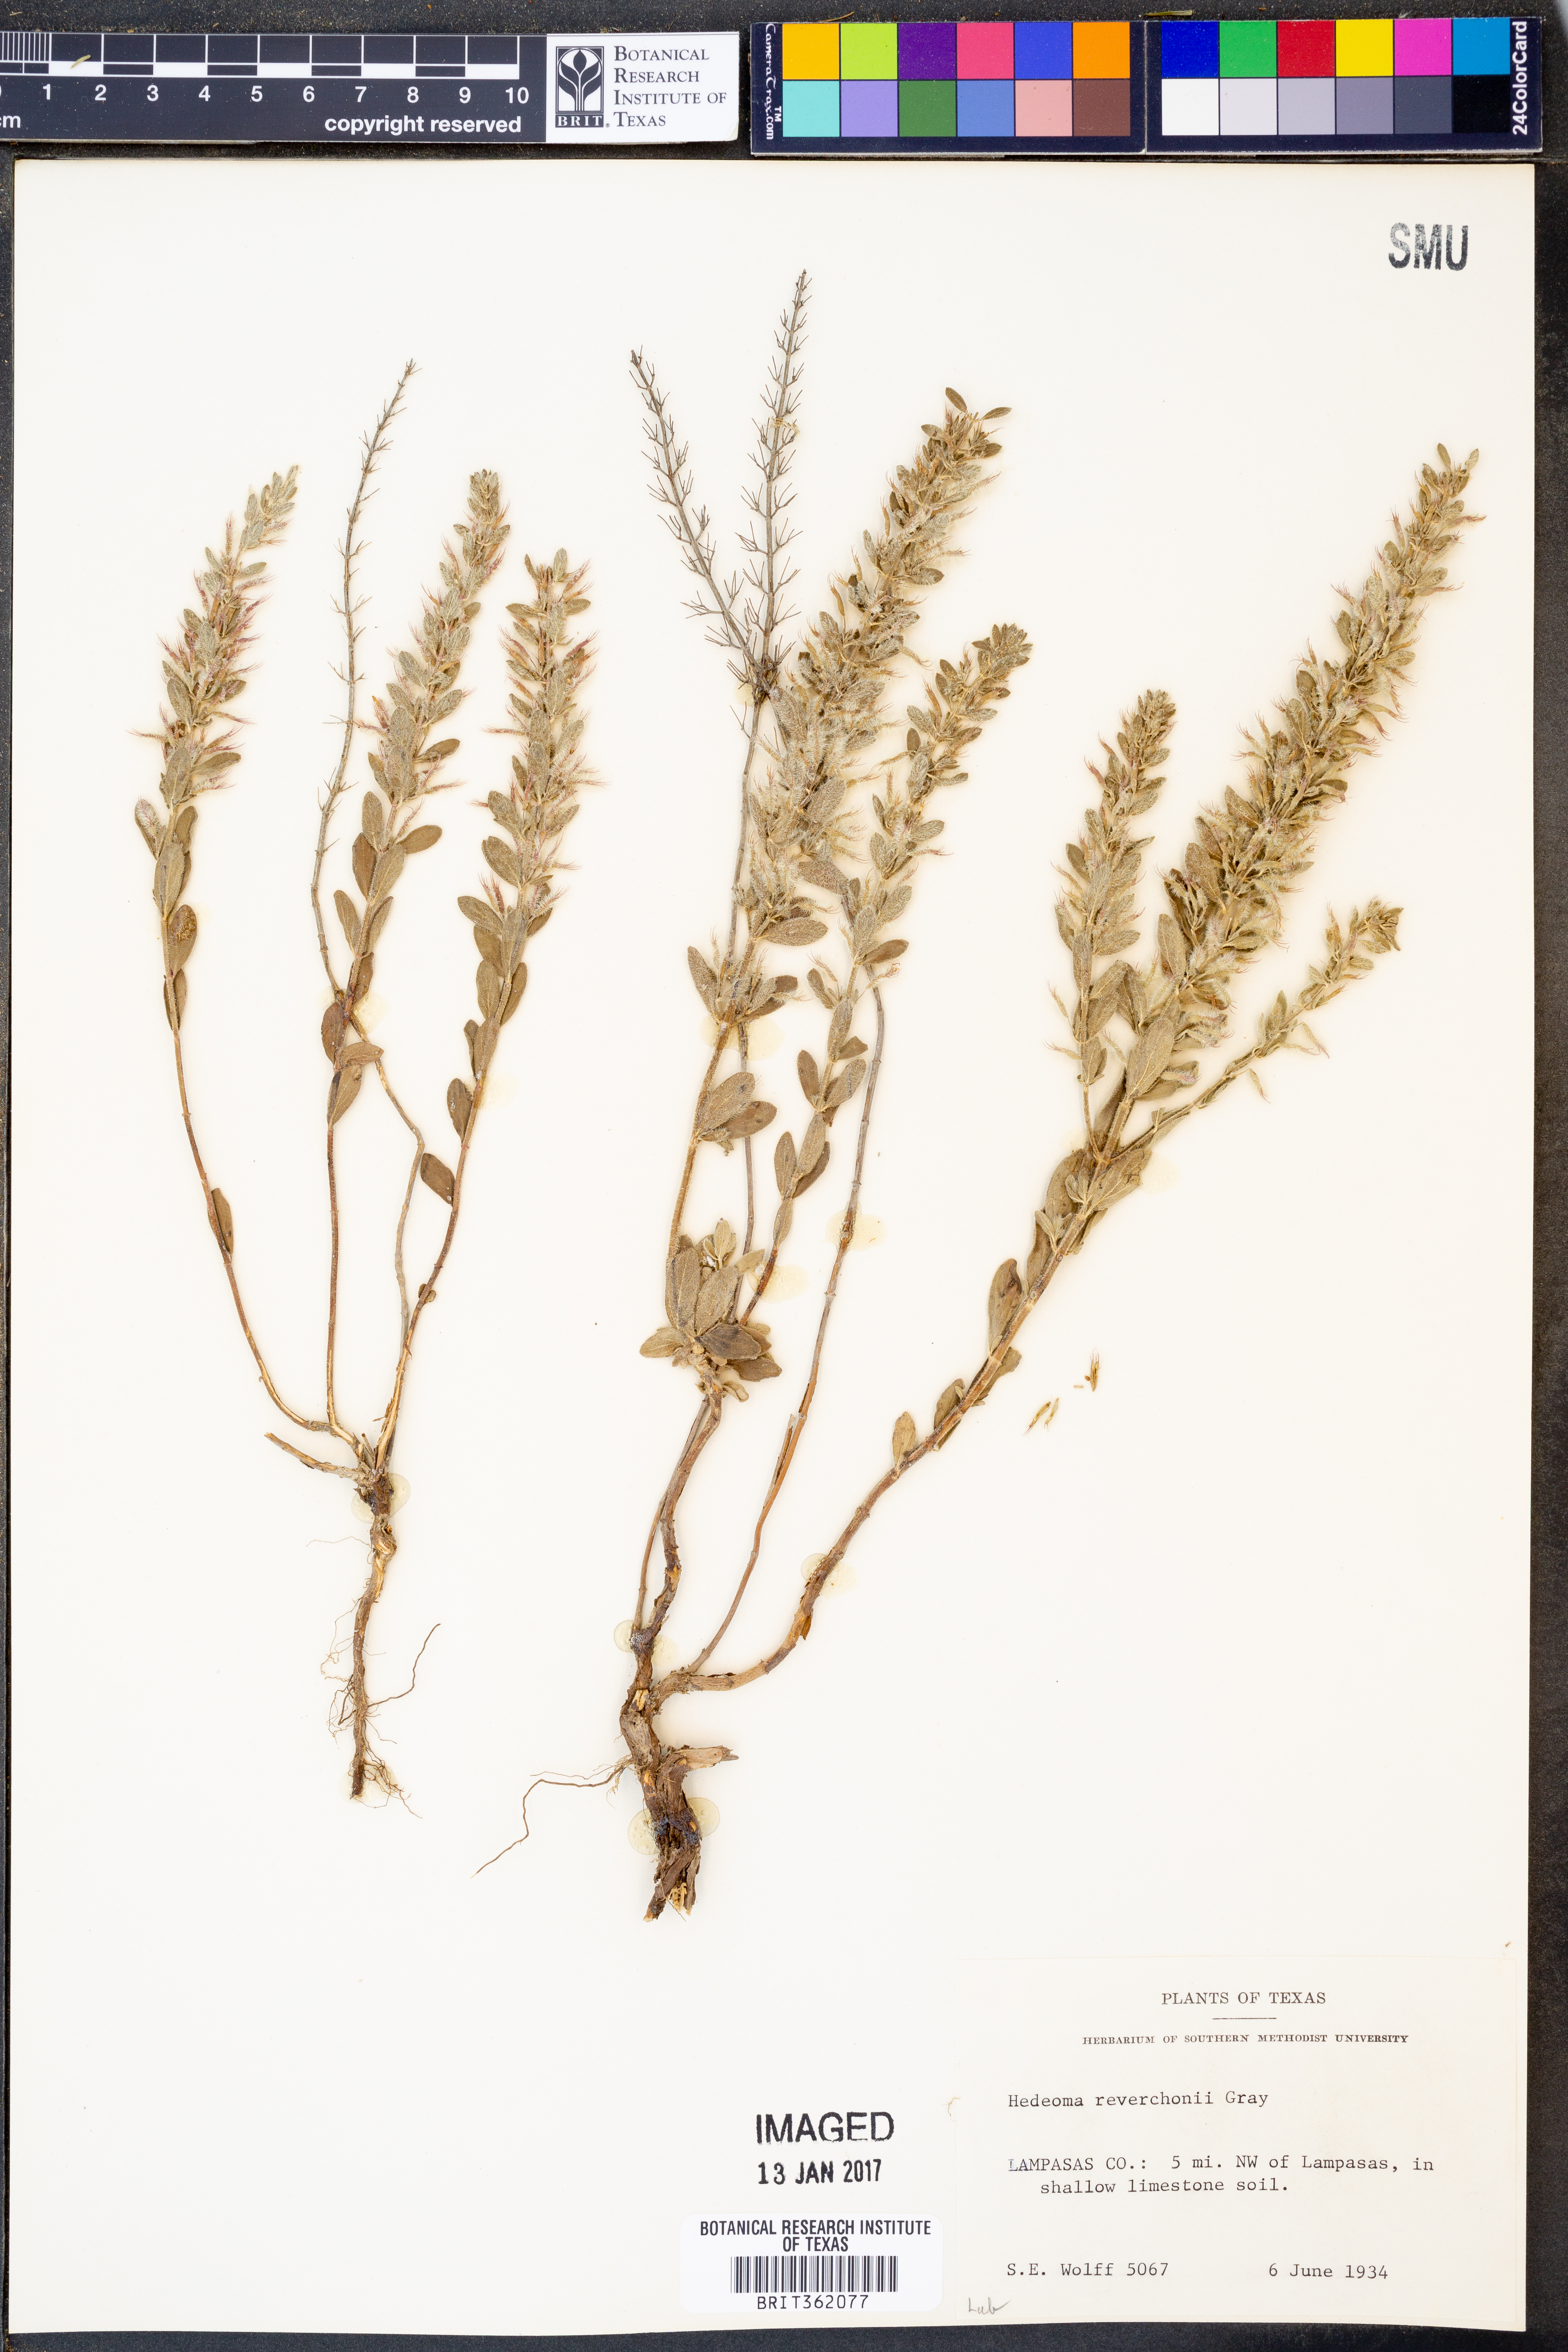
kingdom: Plantae
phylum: Tracheophyta
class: Magnoliopsida
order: Lamiales
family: Lamiaceae
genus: Hedeoma
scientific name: Hedeoma reverchonii
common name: Reverchon's false penny-royal
